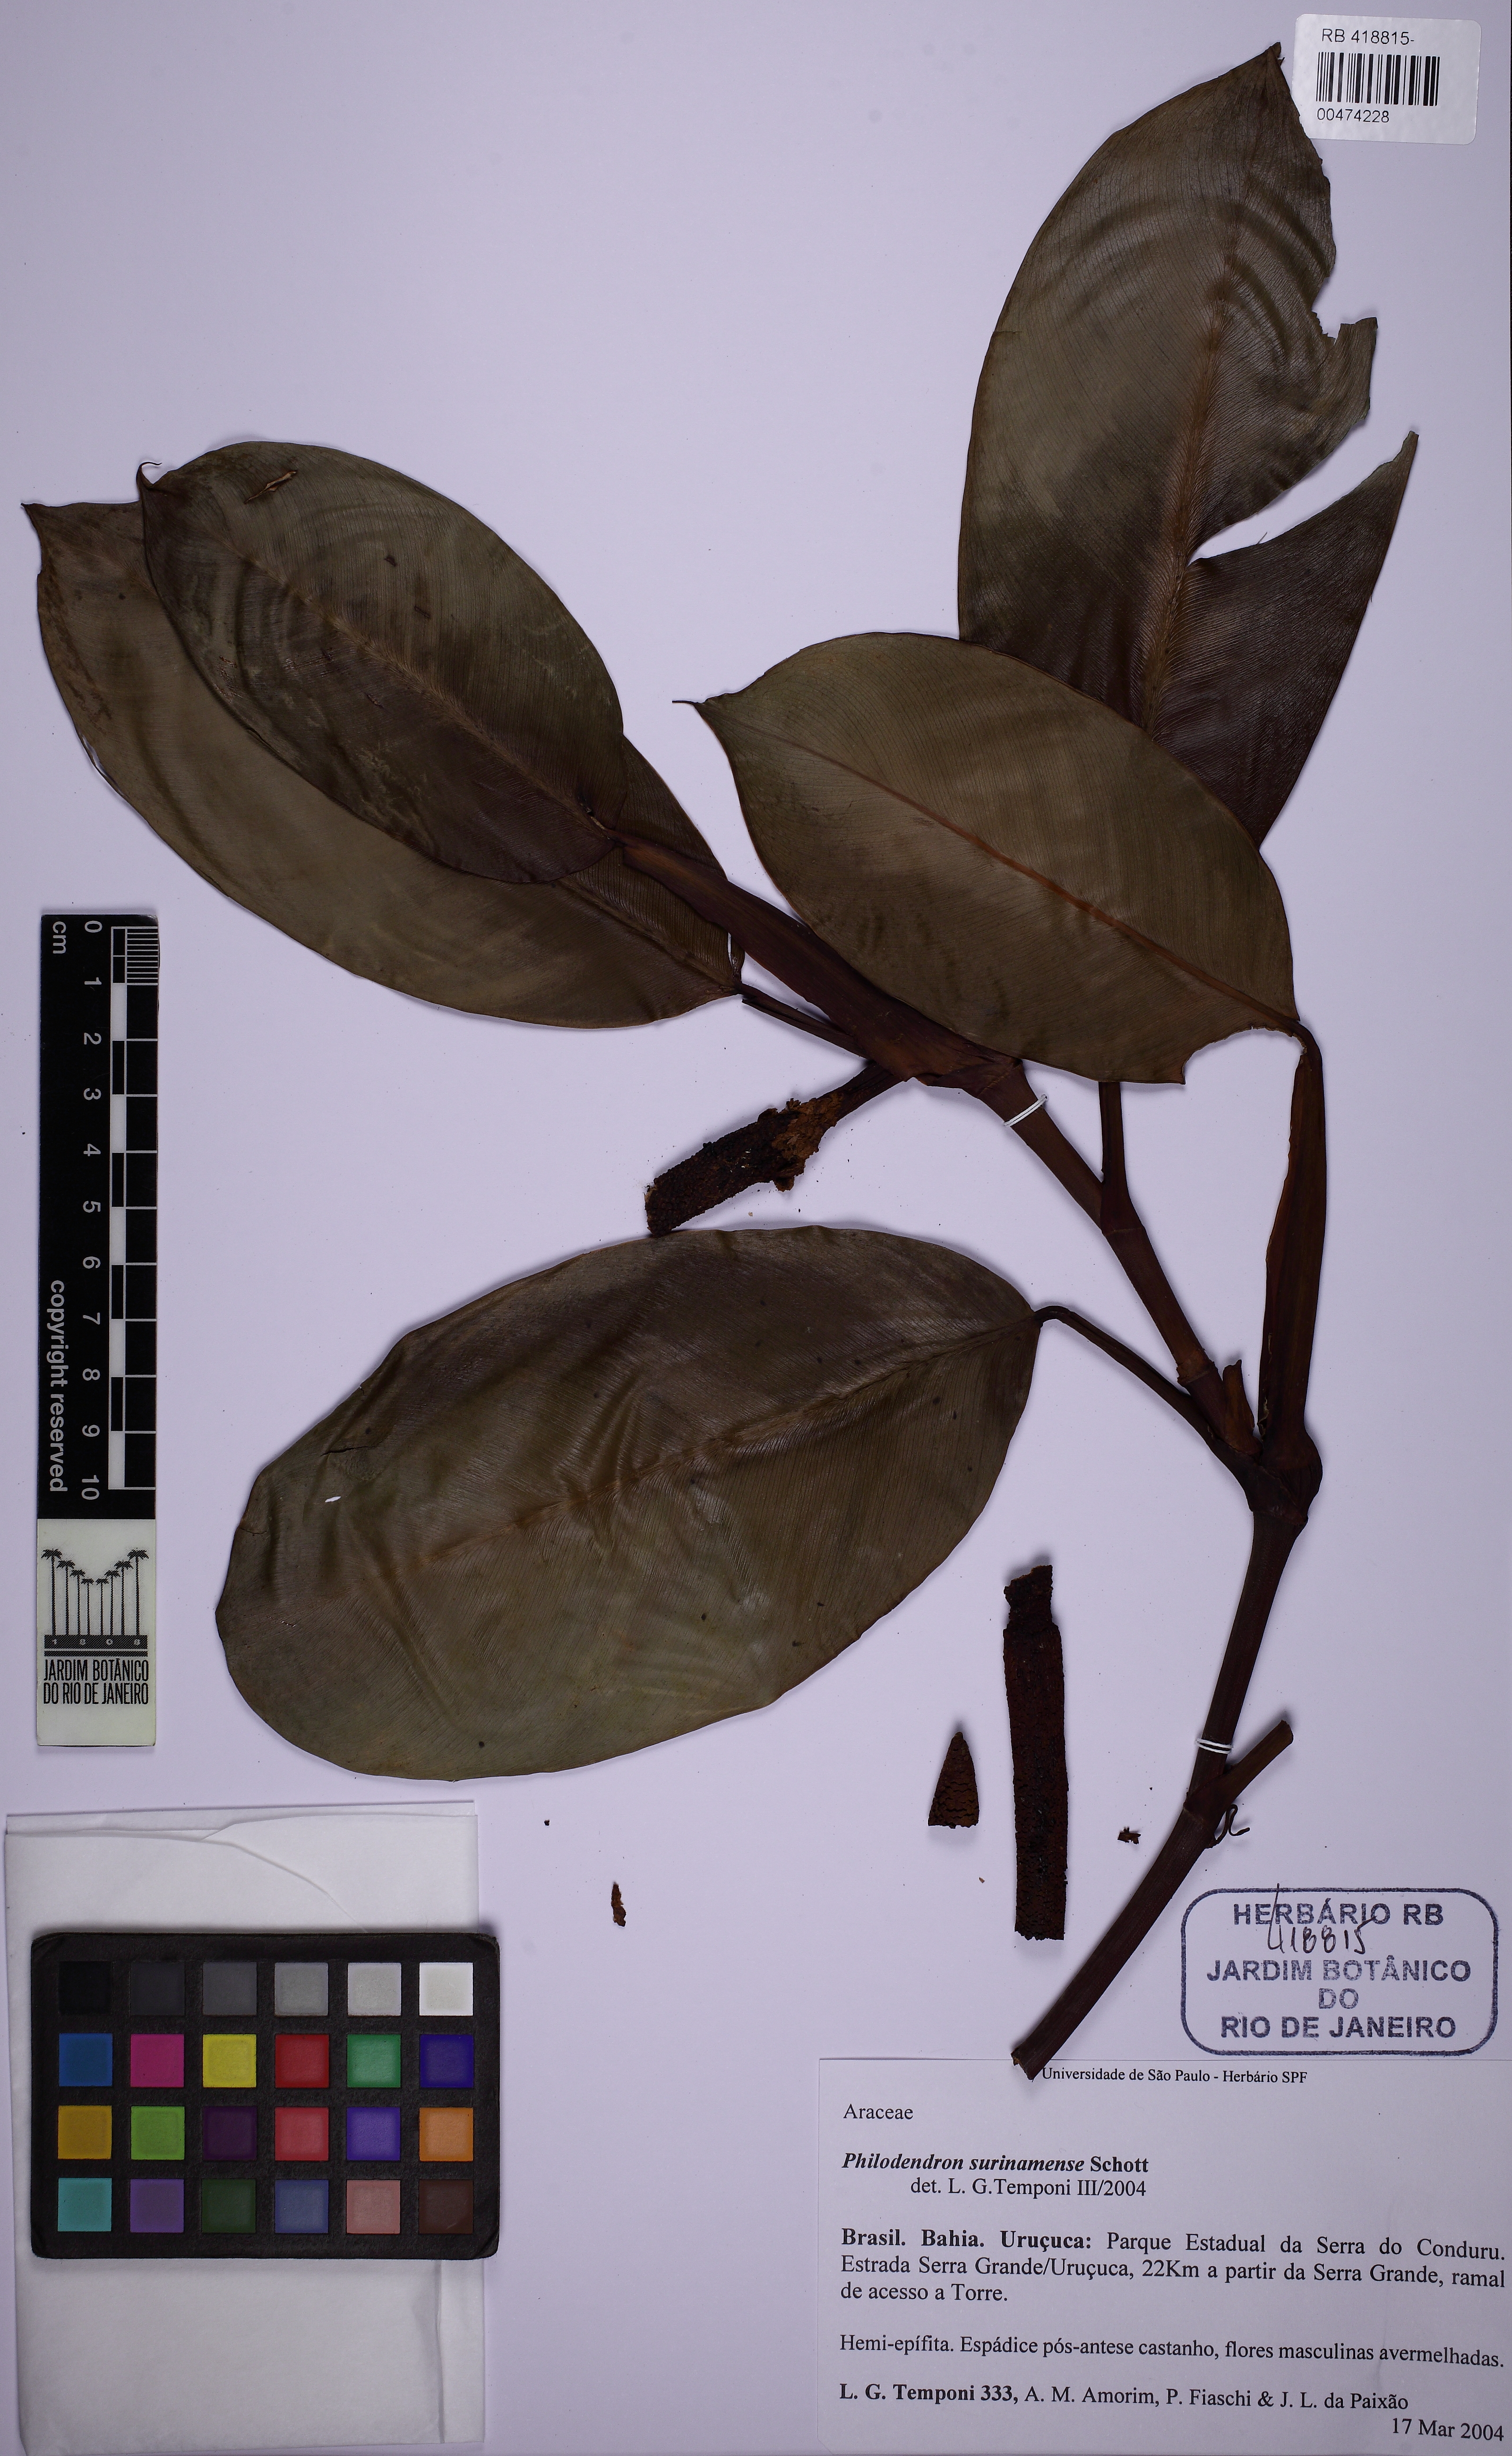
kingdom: Plantae
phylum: Tracheophyta
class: Liliopsida
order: Alismatales
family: Araceae
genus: Philodendron
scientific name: Philodendron surinamense
